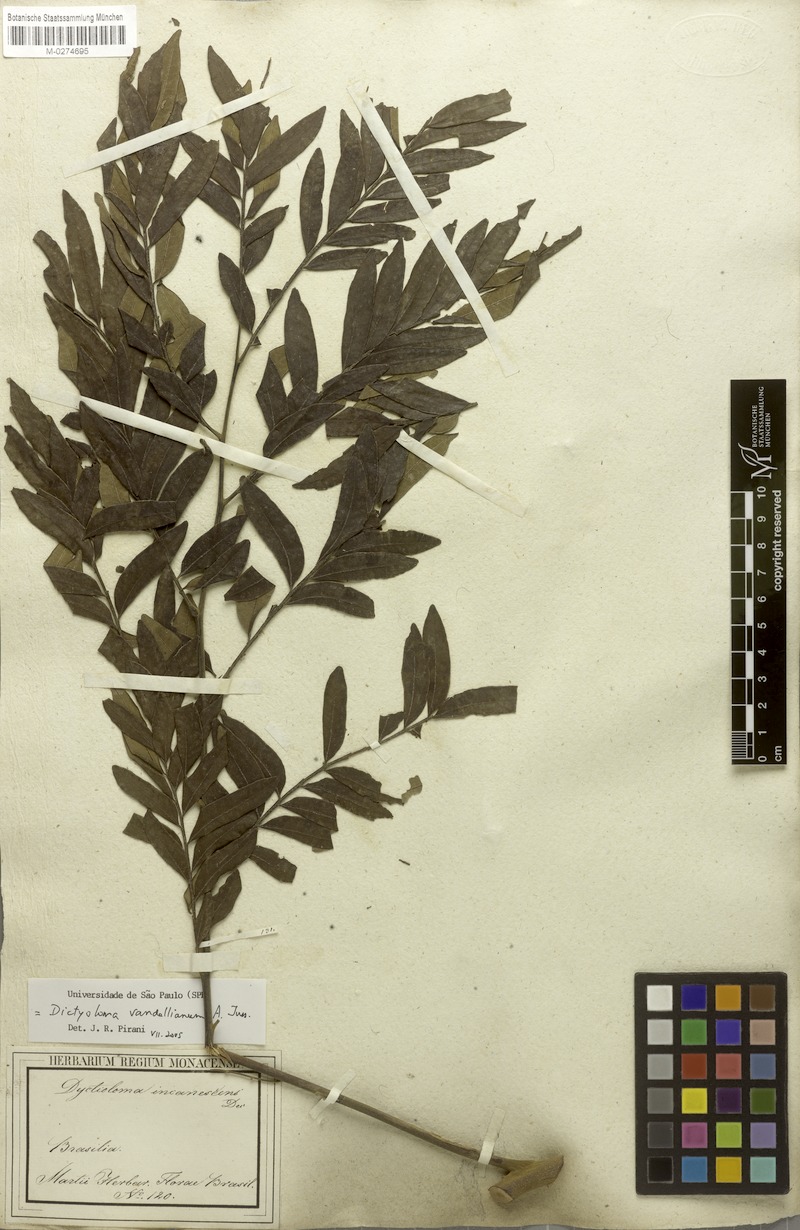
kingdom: Plantae
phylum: Tracheophyta
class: Magnoliopsida
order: Sapindales
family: Rutaceae
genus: Dictyoloma
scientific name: Dictyoloma vandellianum
